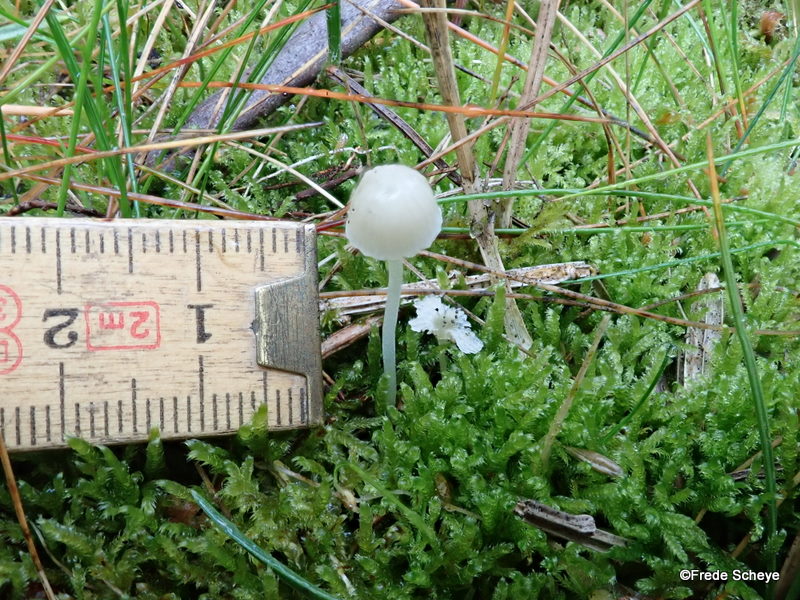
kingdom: Fungi
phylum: Basidiomycota
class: Agaricomycetes
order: Agaricales
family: Mycenaceae
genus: Mycena
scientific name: Mycena epipterygia
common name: gulstokket huesvamp
